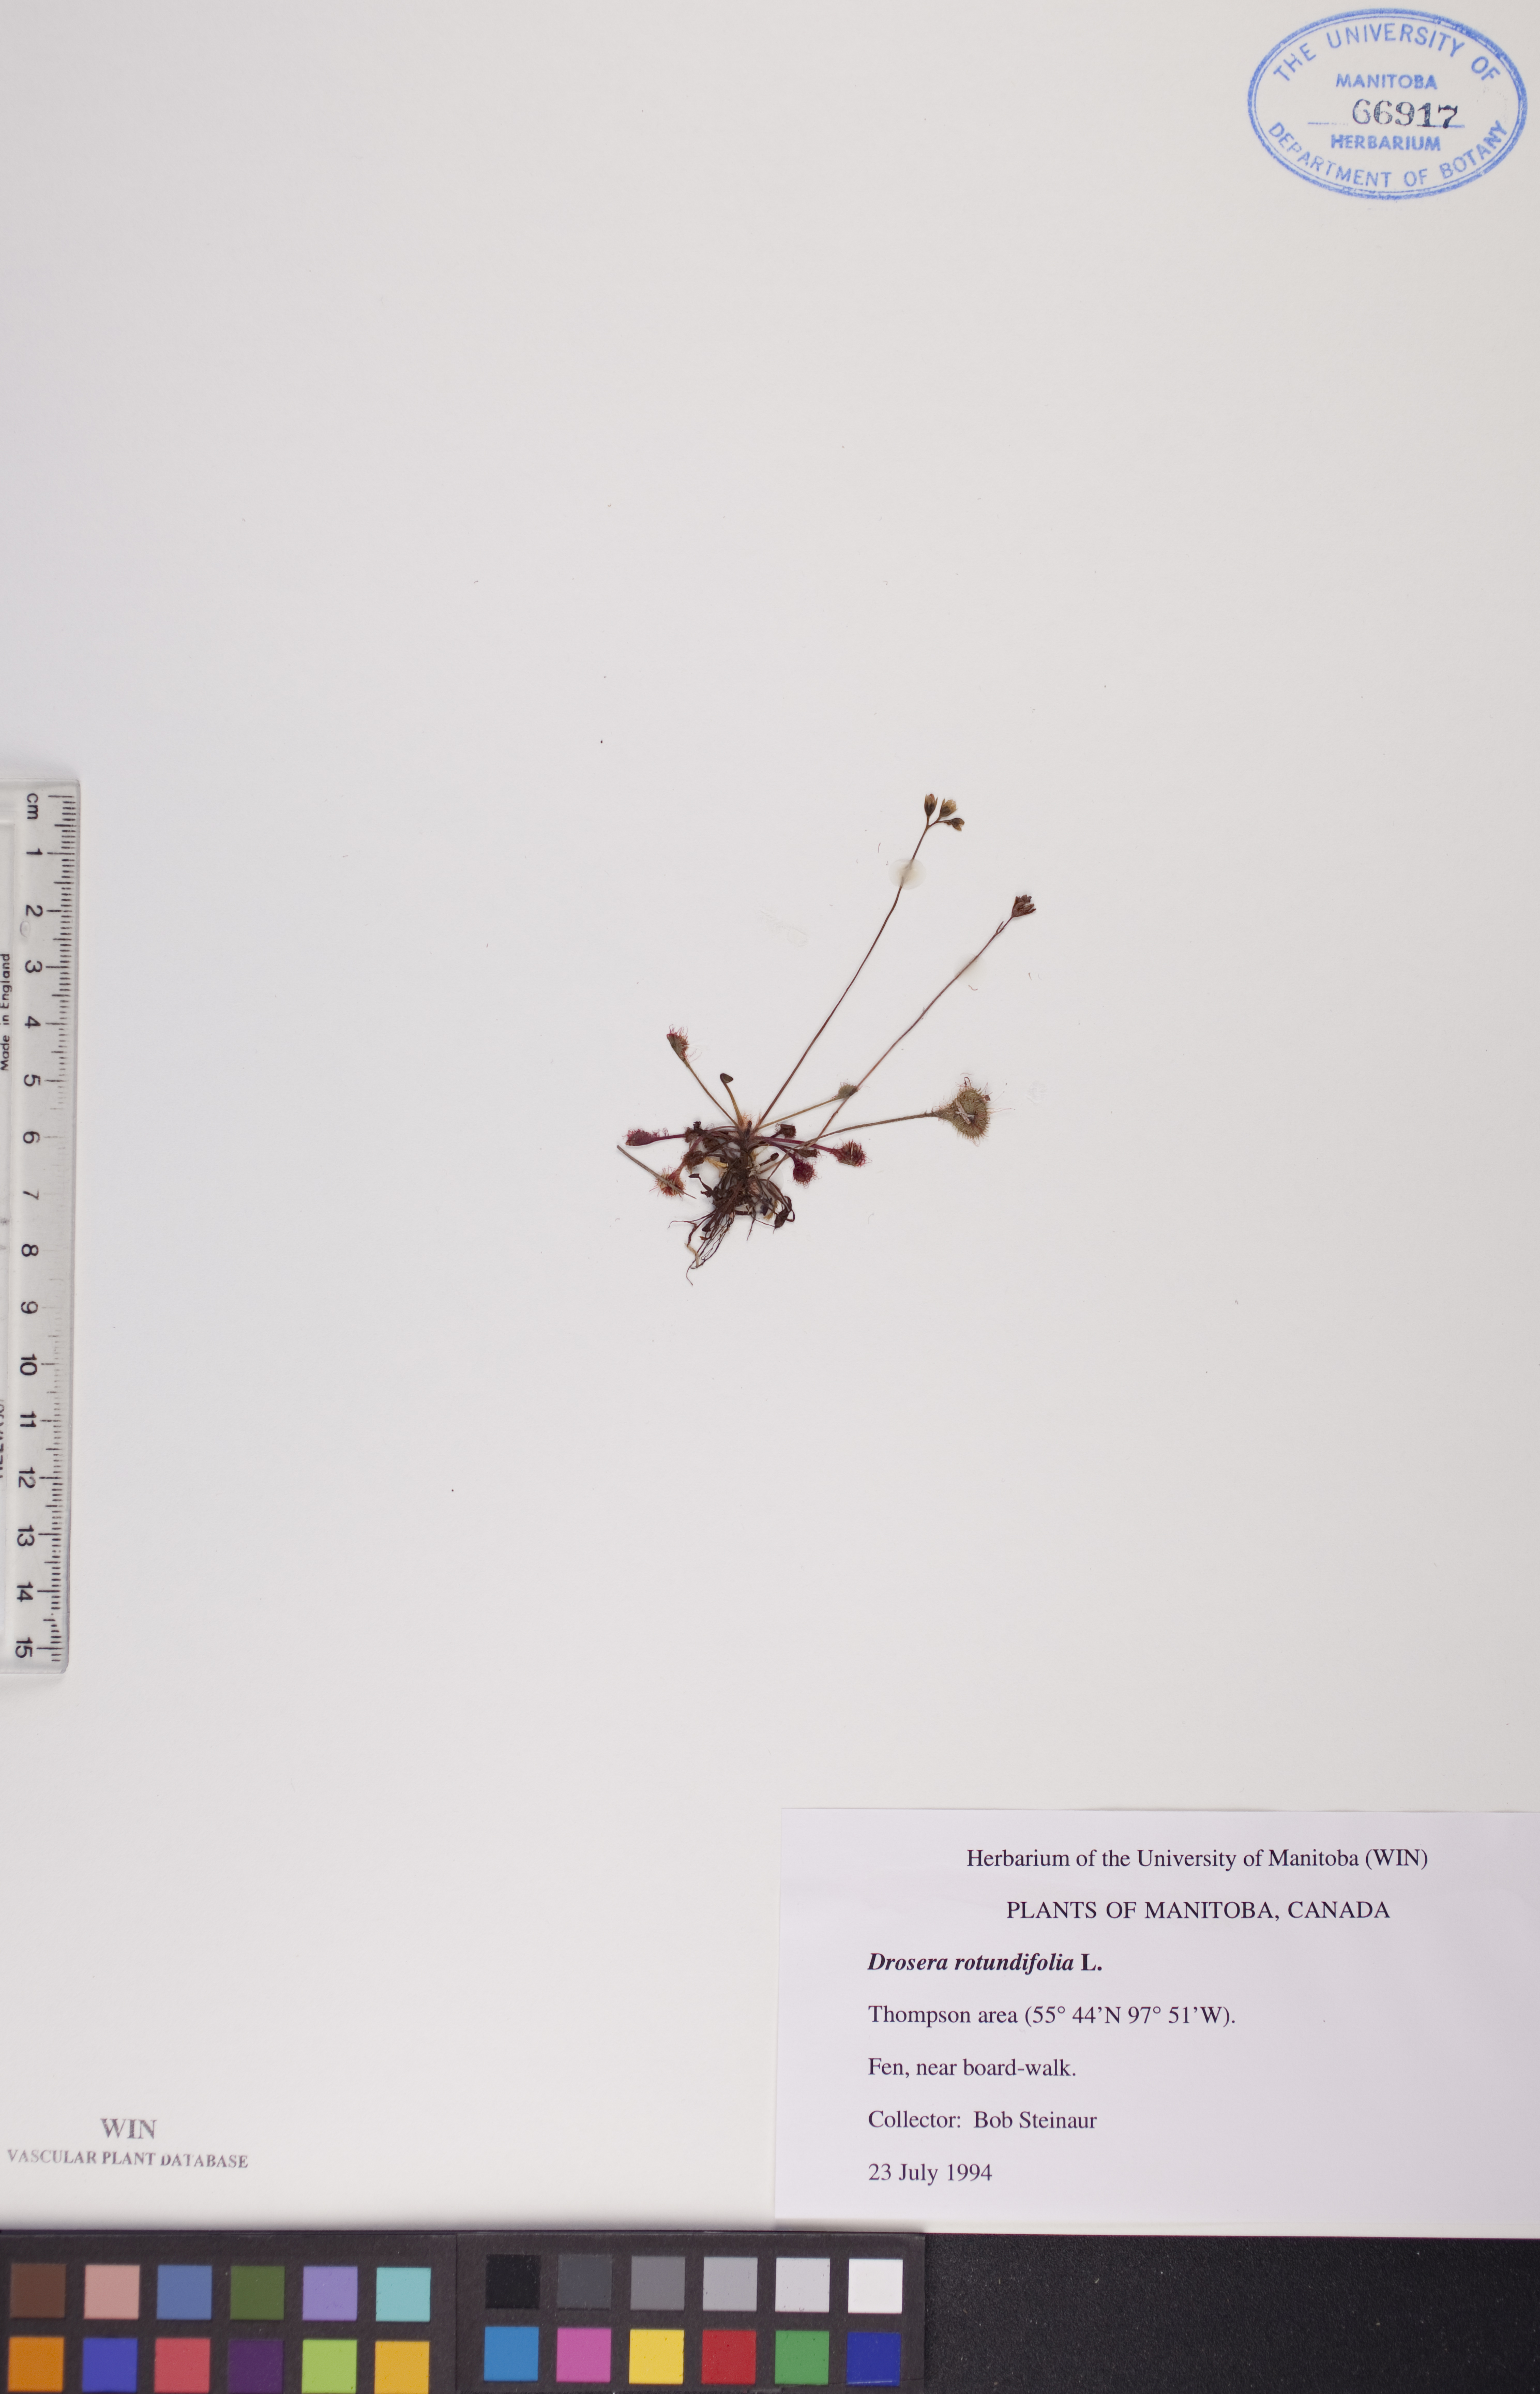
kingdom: Plantae
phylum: Tracheophyta
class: Magnoliopsida
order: Caryophyllales
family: Droseraceae
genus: Drosera
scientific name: Drosera rotundifolia
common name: Round-leaved sundew
